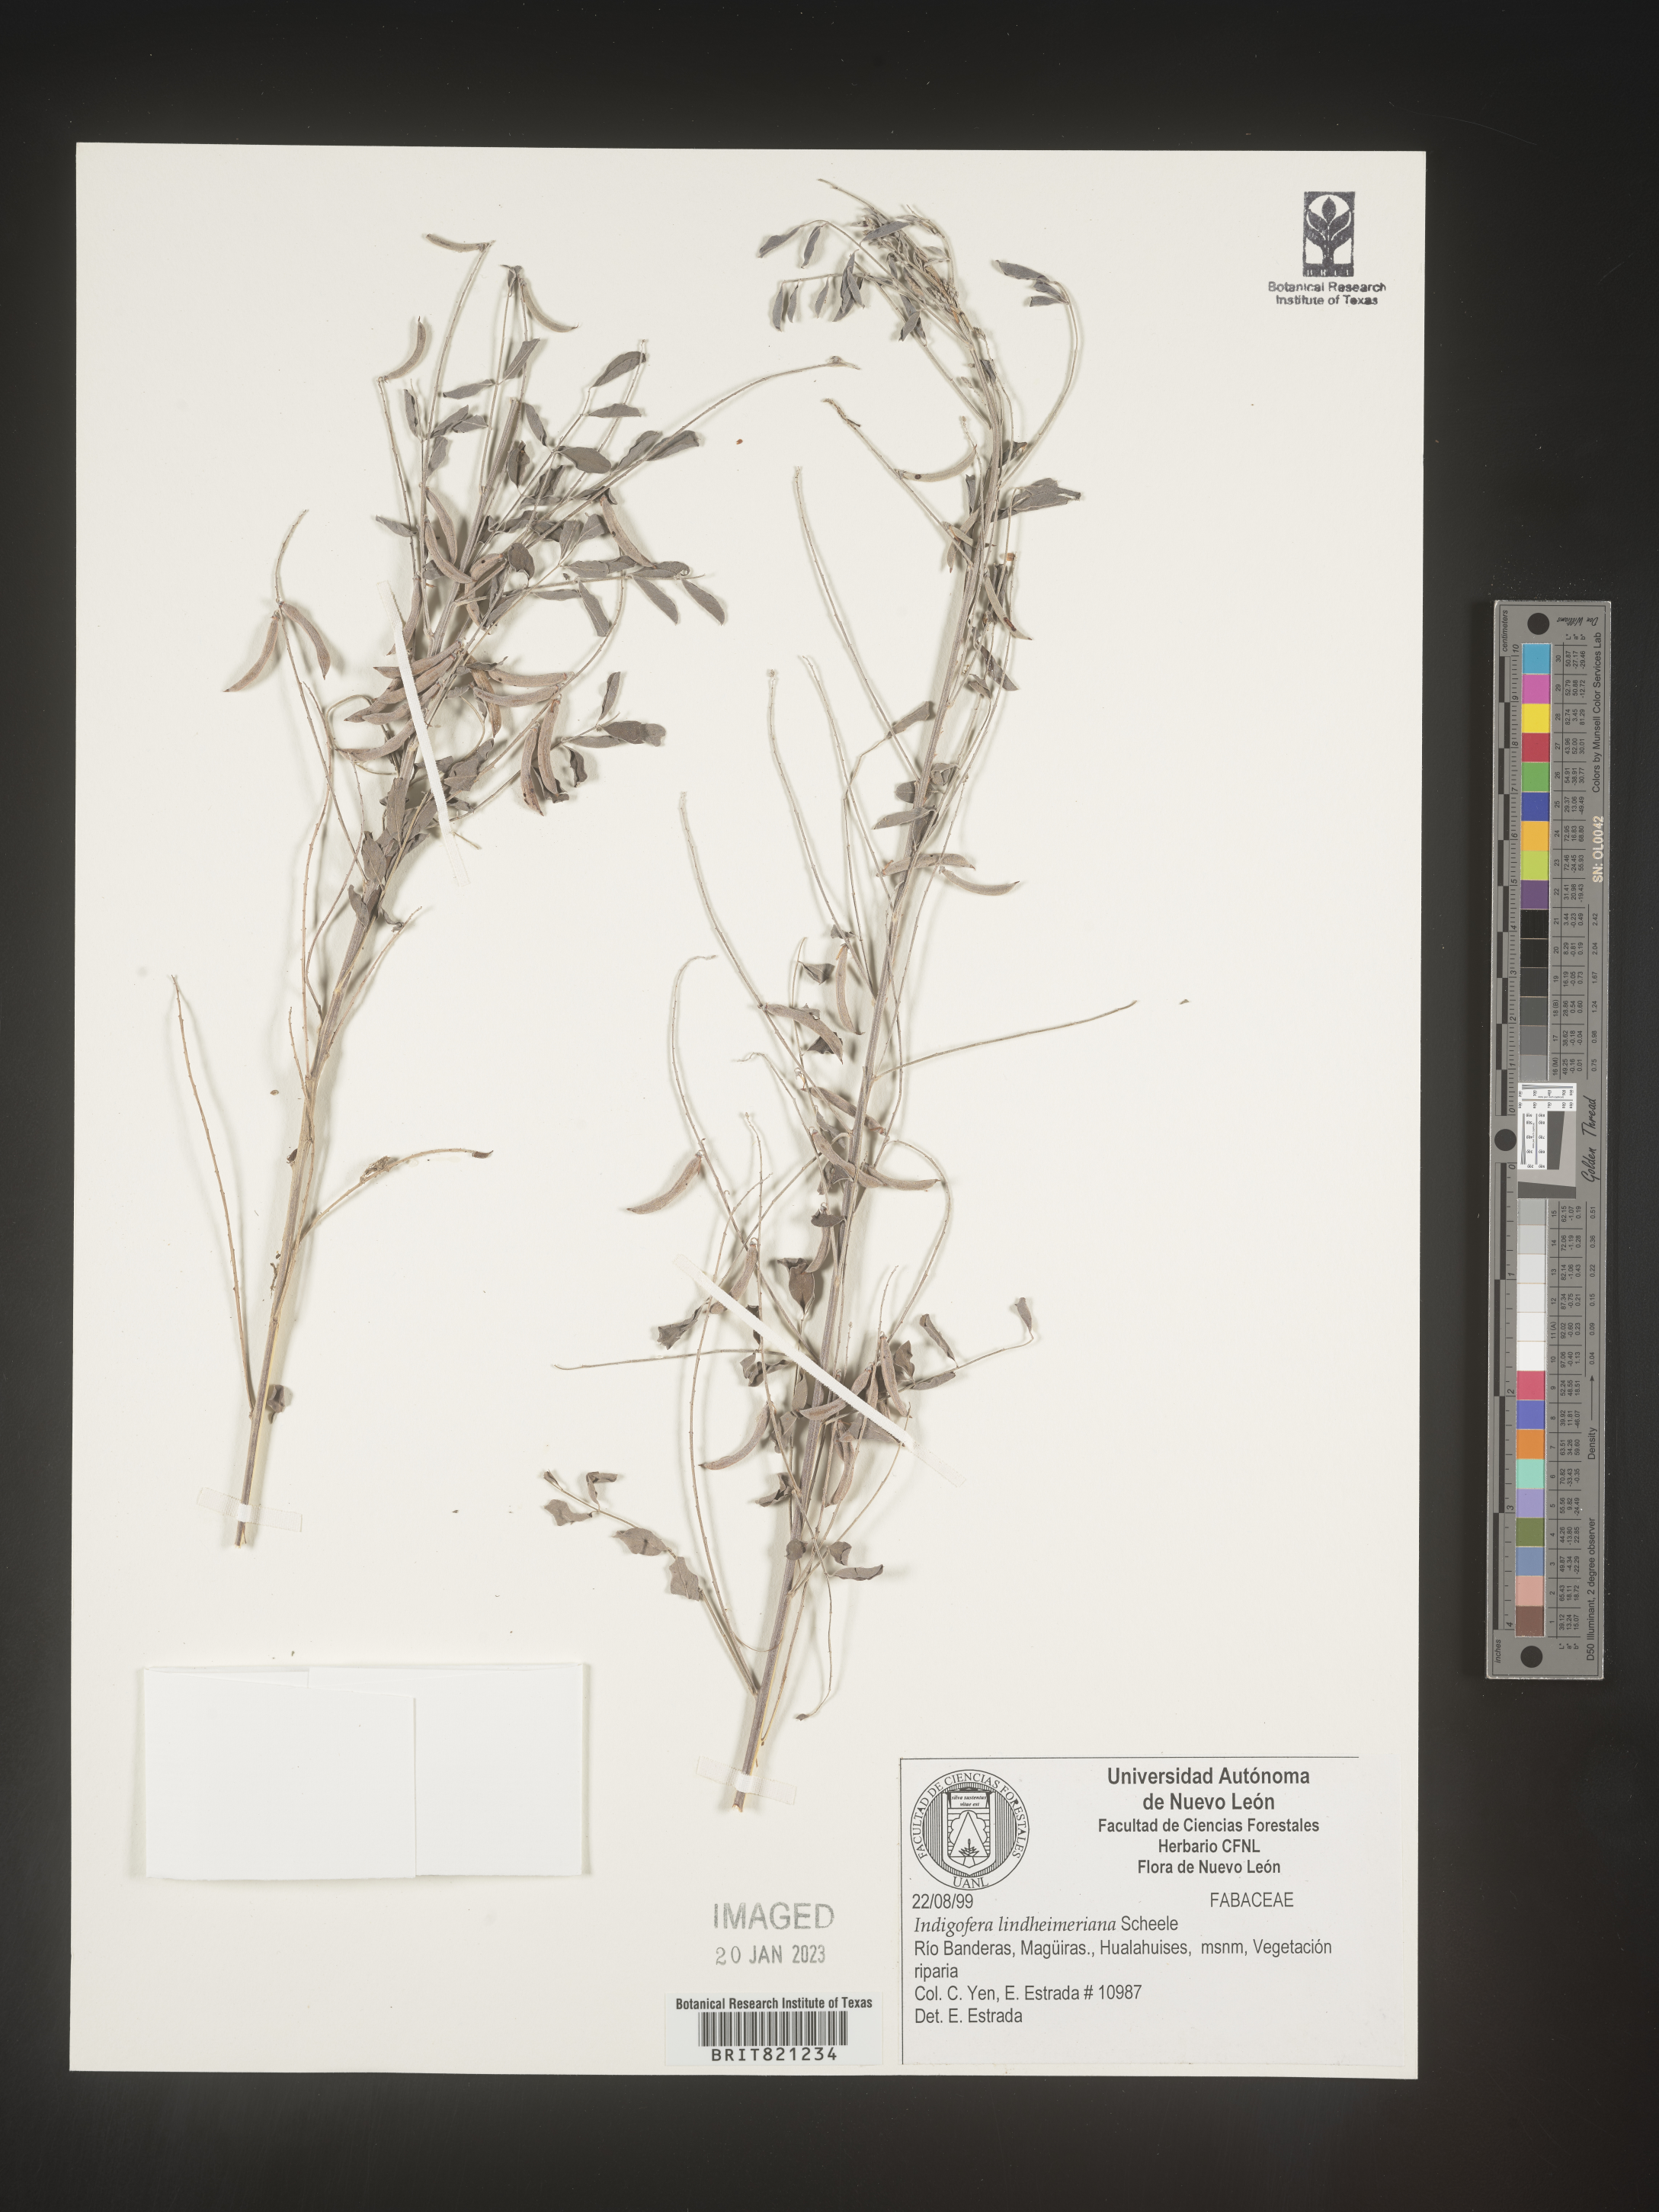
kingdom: Plantae
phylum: Tracheophyta
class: Magnoliopsida
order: Fabales
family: Fabaceae
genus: Indigofera
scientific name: Indigofera
